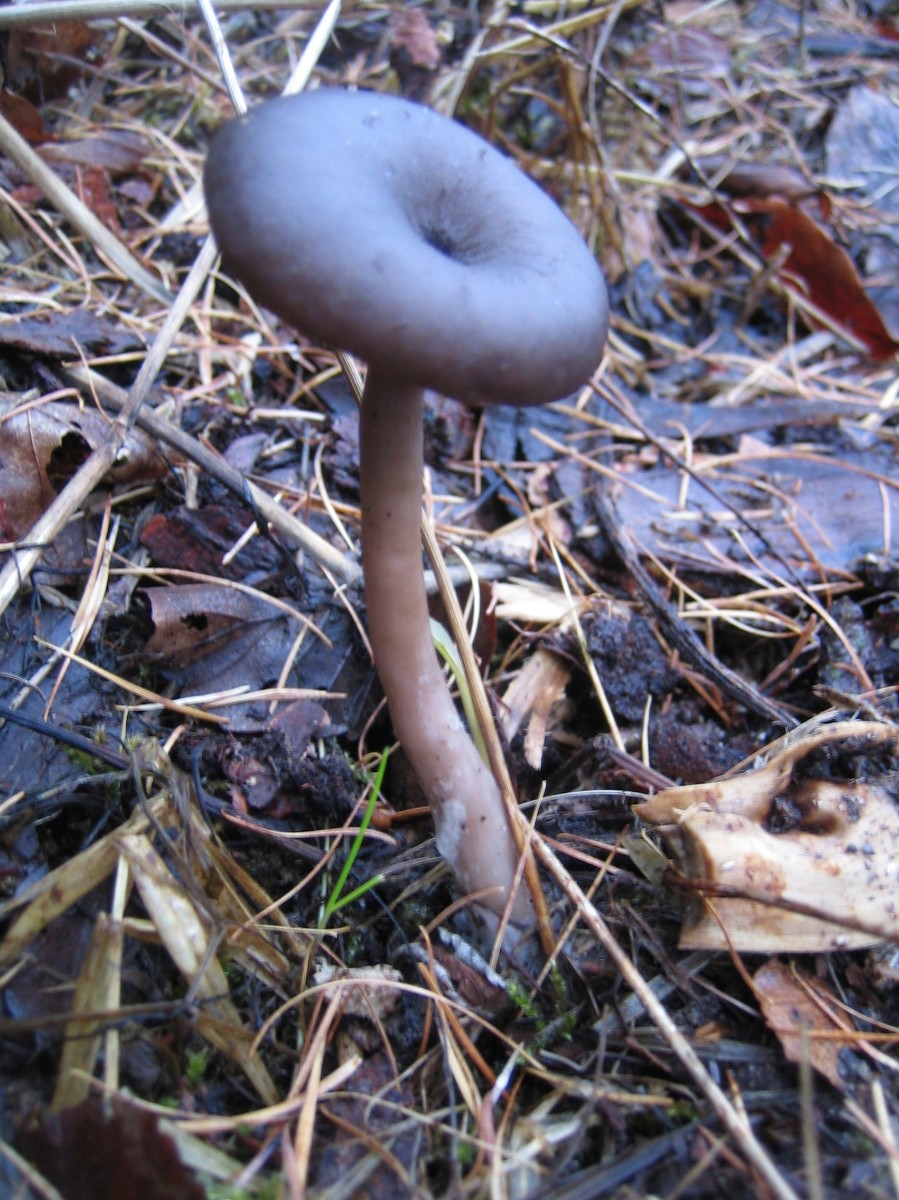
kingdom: Fungi
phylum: Basidiomycota
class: Agaricomycetes
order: Agaricales
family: Pseudoclitocybaceae
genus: Pseudoclitocybe
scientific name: Pseudoclitocybe cyathiformis
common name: almindelig bægertragthat
